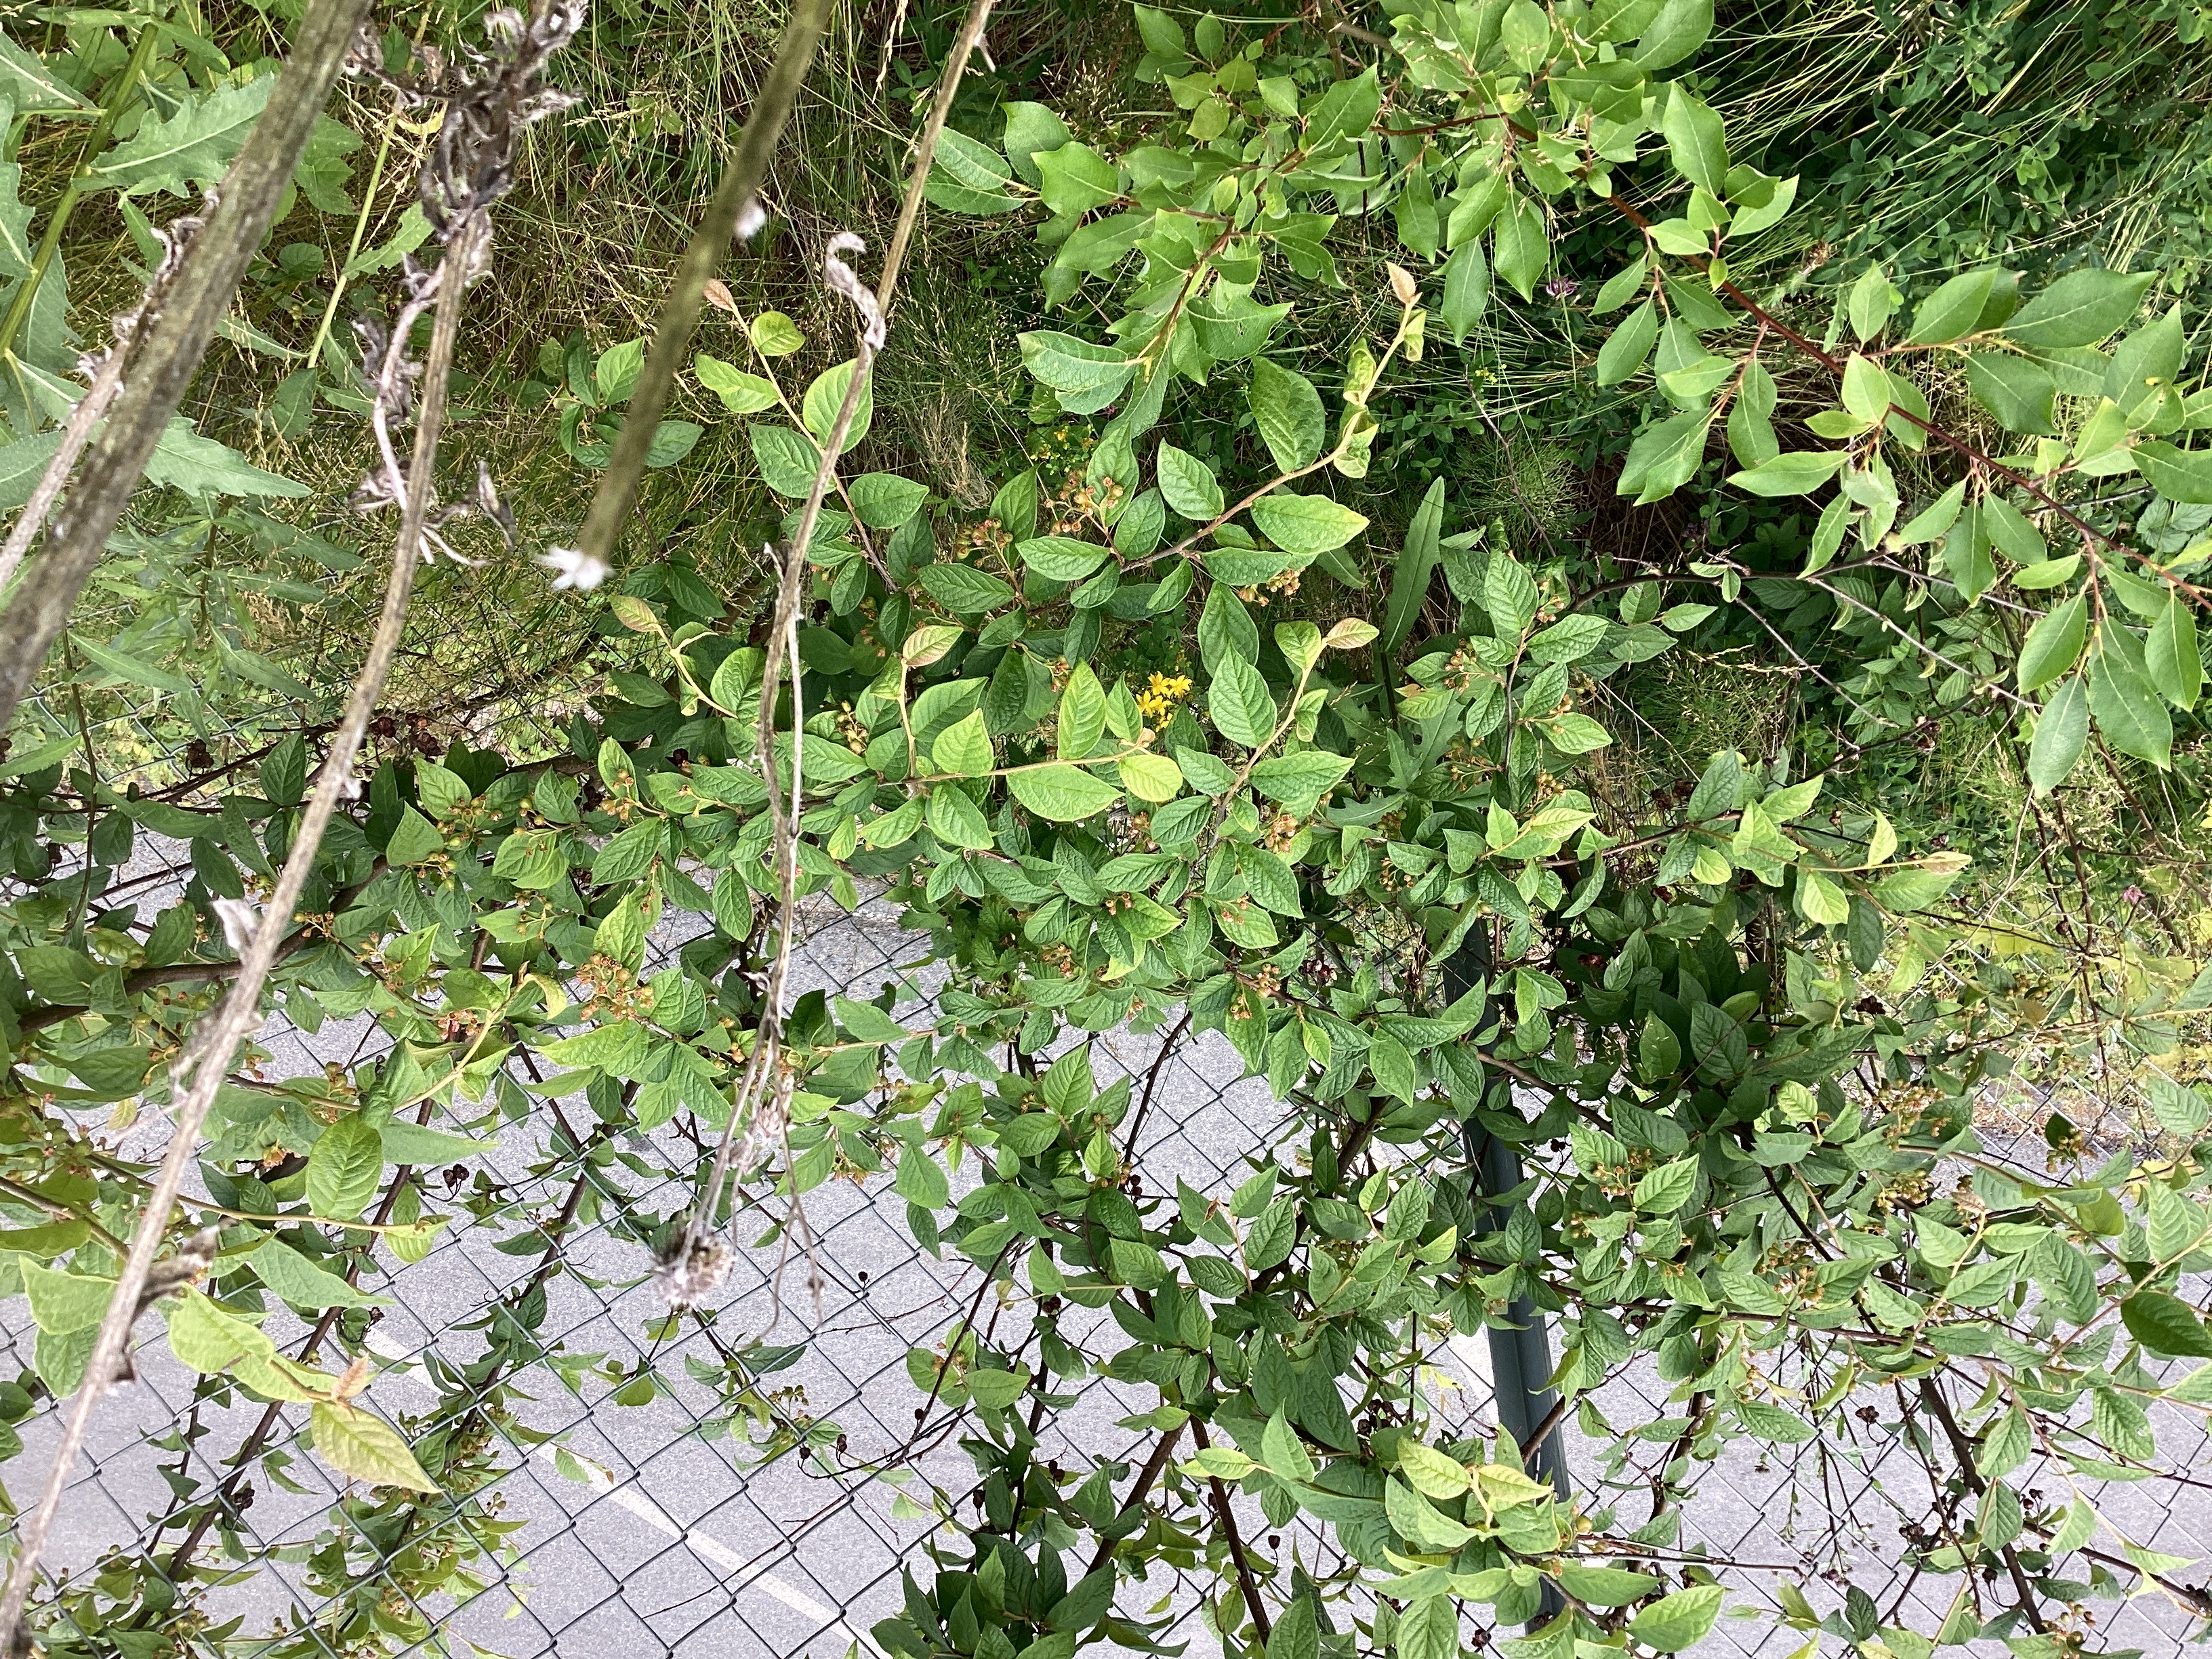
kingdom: Plantae
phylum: Tracheophyta
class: Magnoliopsida
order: Rosales
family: Rosaceae
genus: Cotoneaster
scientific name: Cotoneaster bullatus
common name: bulkemispel
